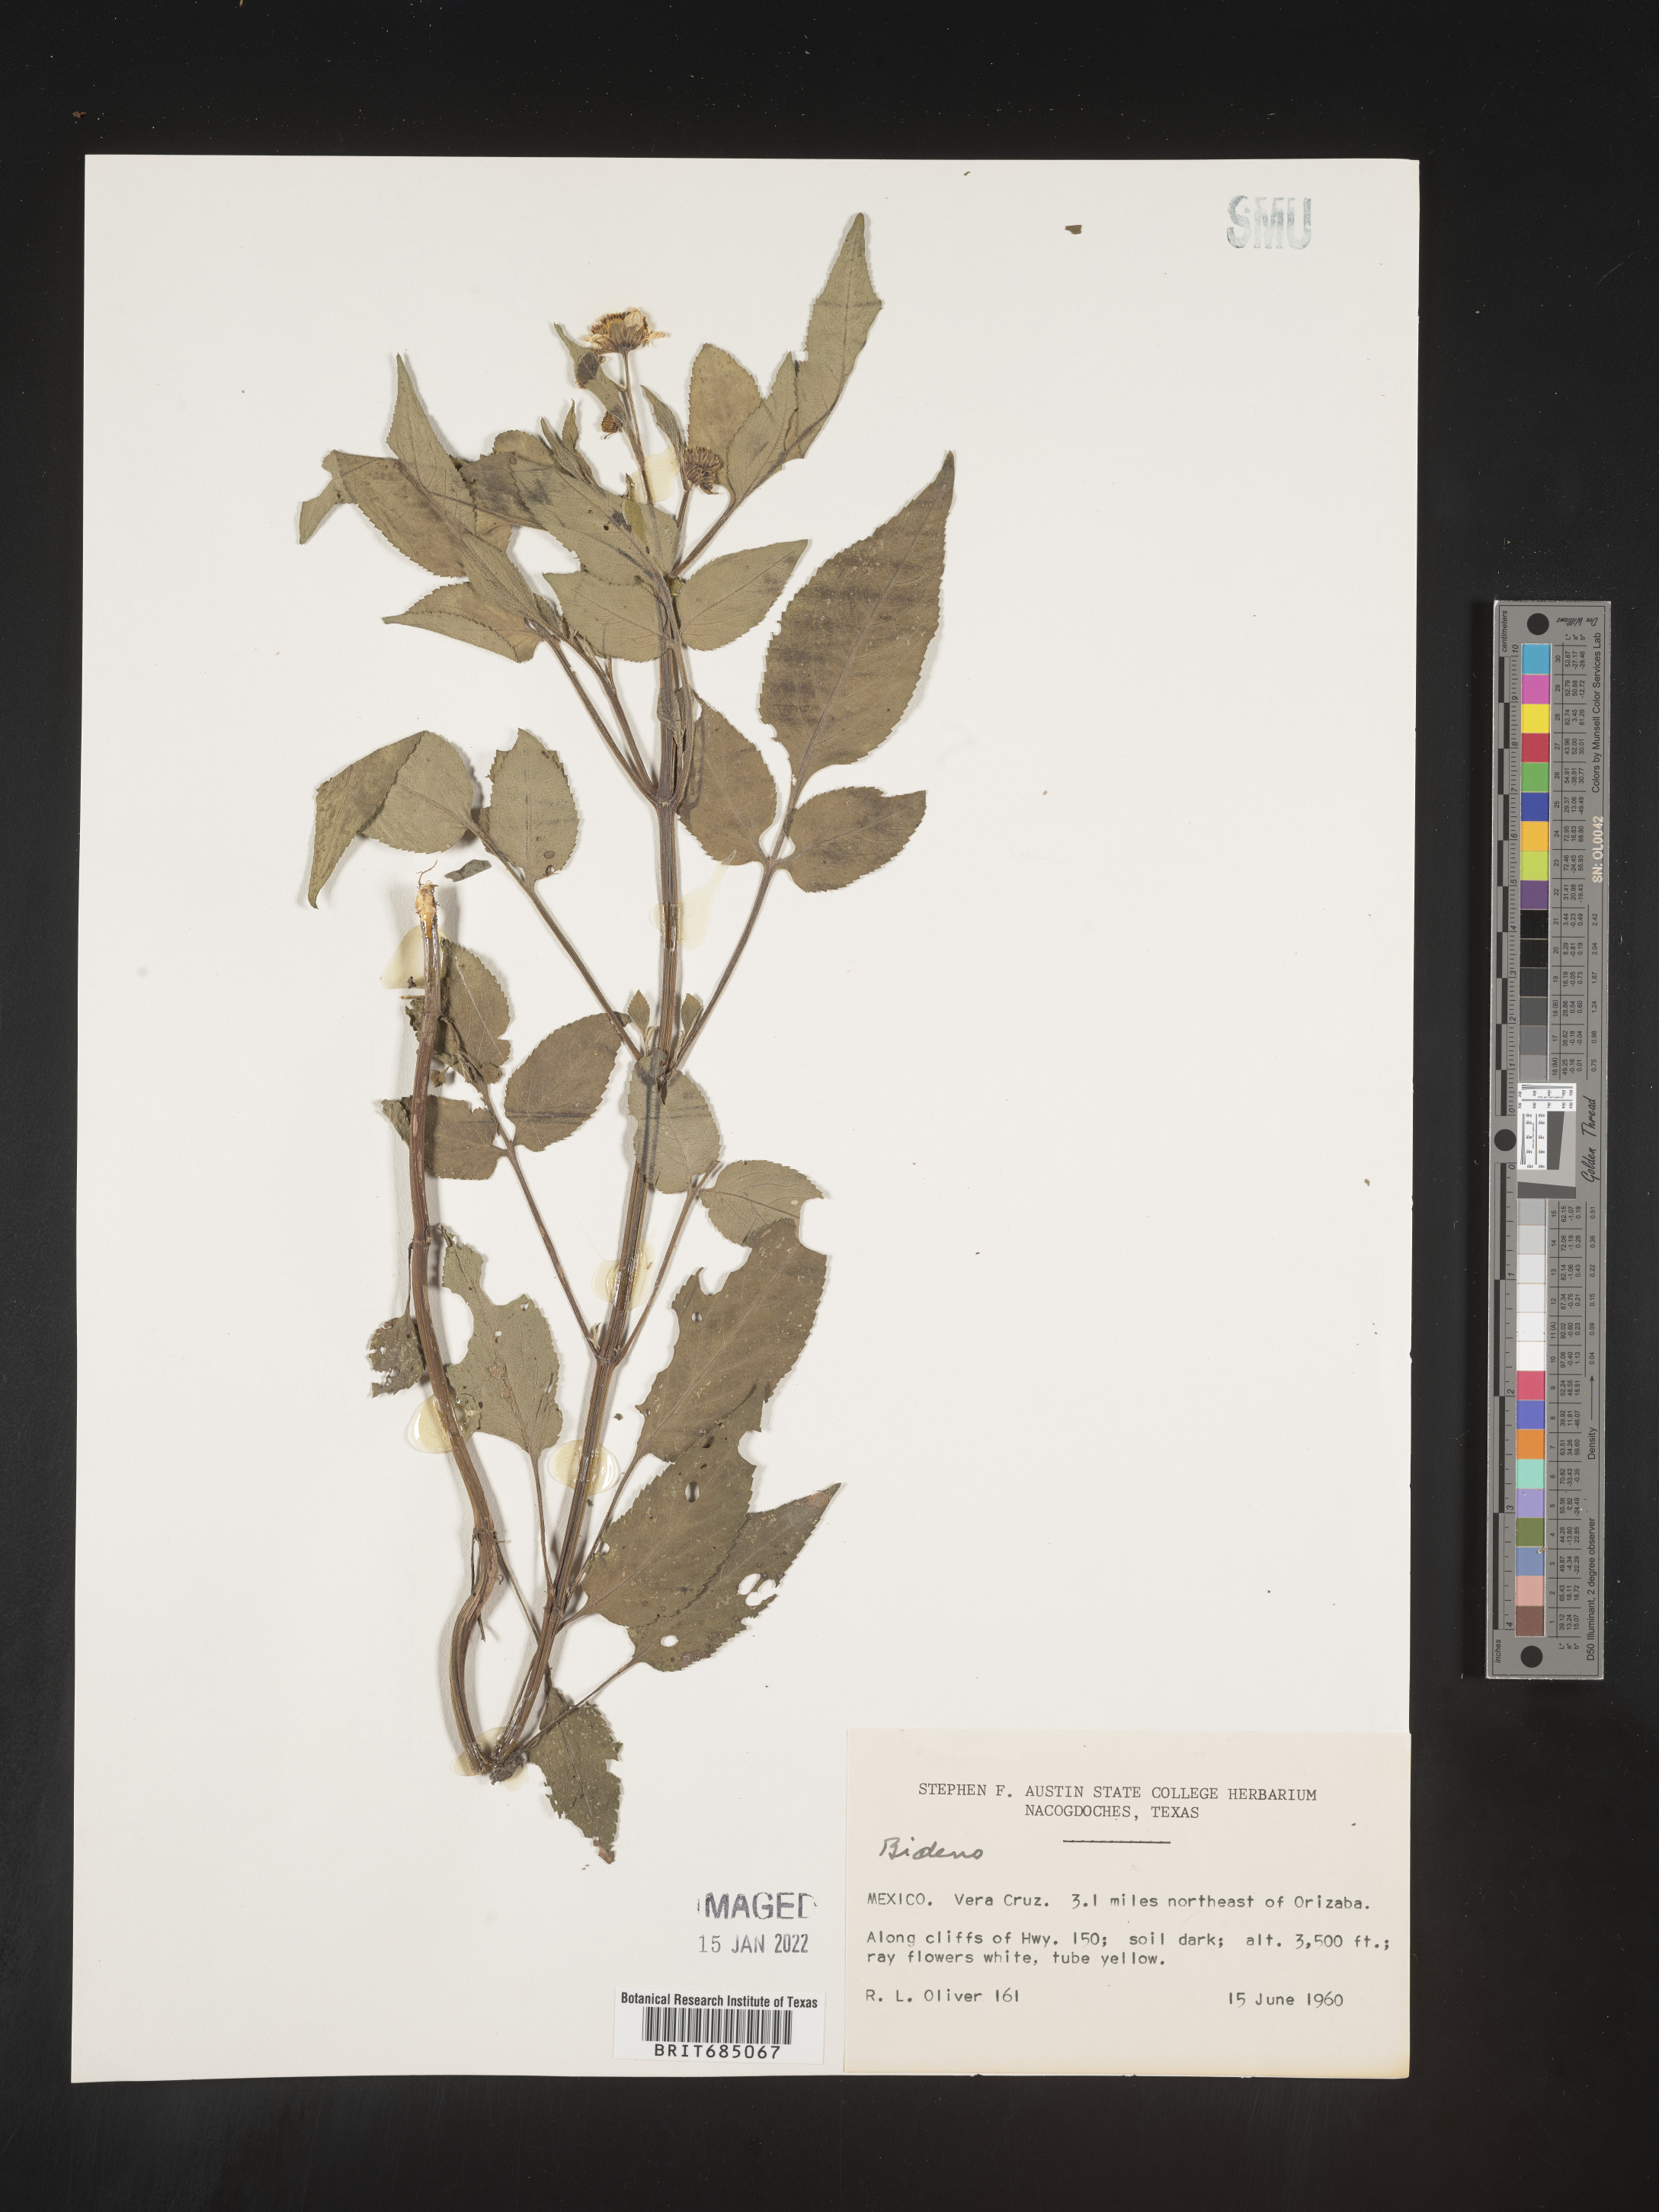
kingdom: Plantae
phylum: Tracheophyta
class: Magnoliopsida
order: Asterales
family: Asteraceae
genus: Bidens
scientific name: Bidens
